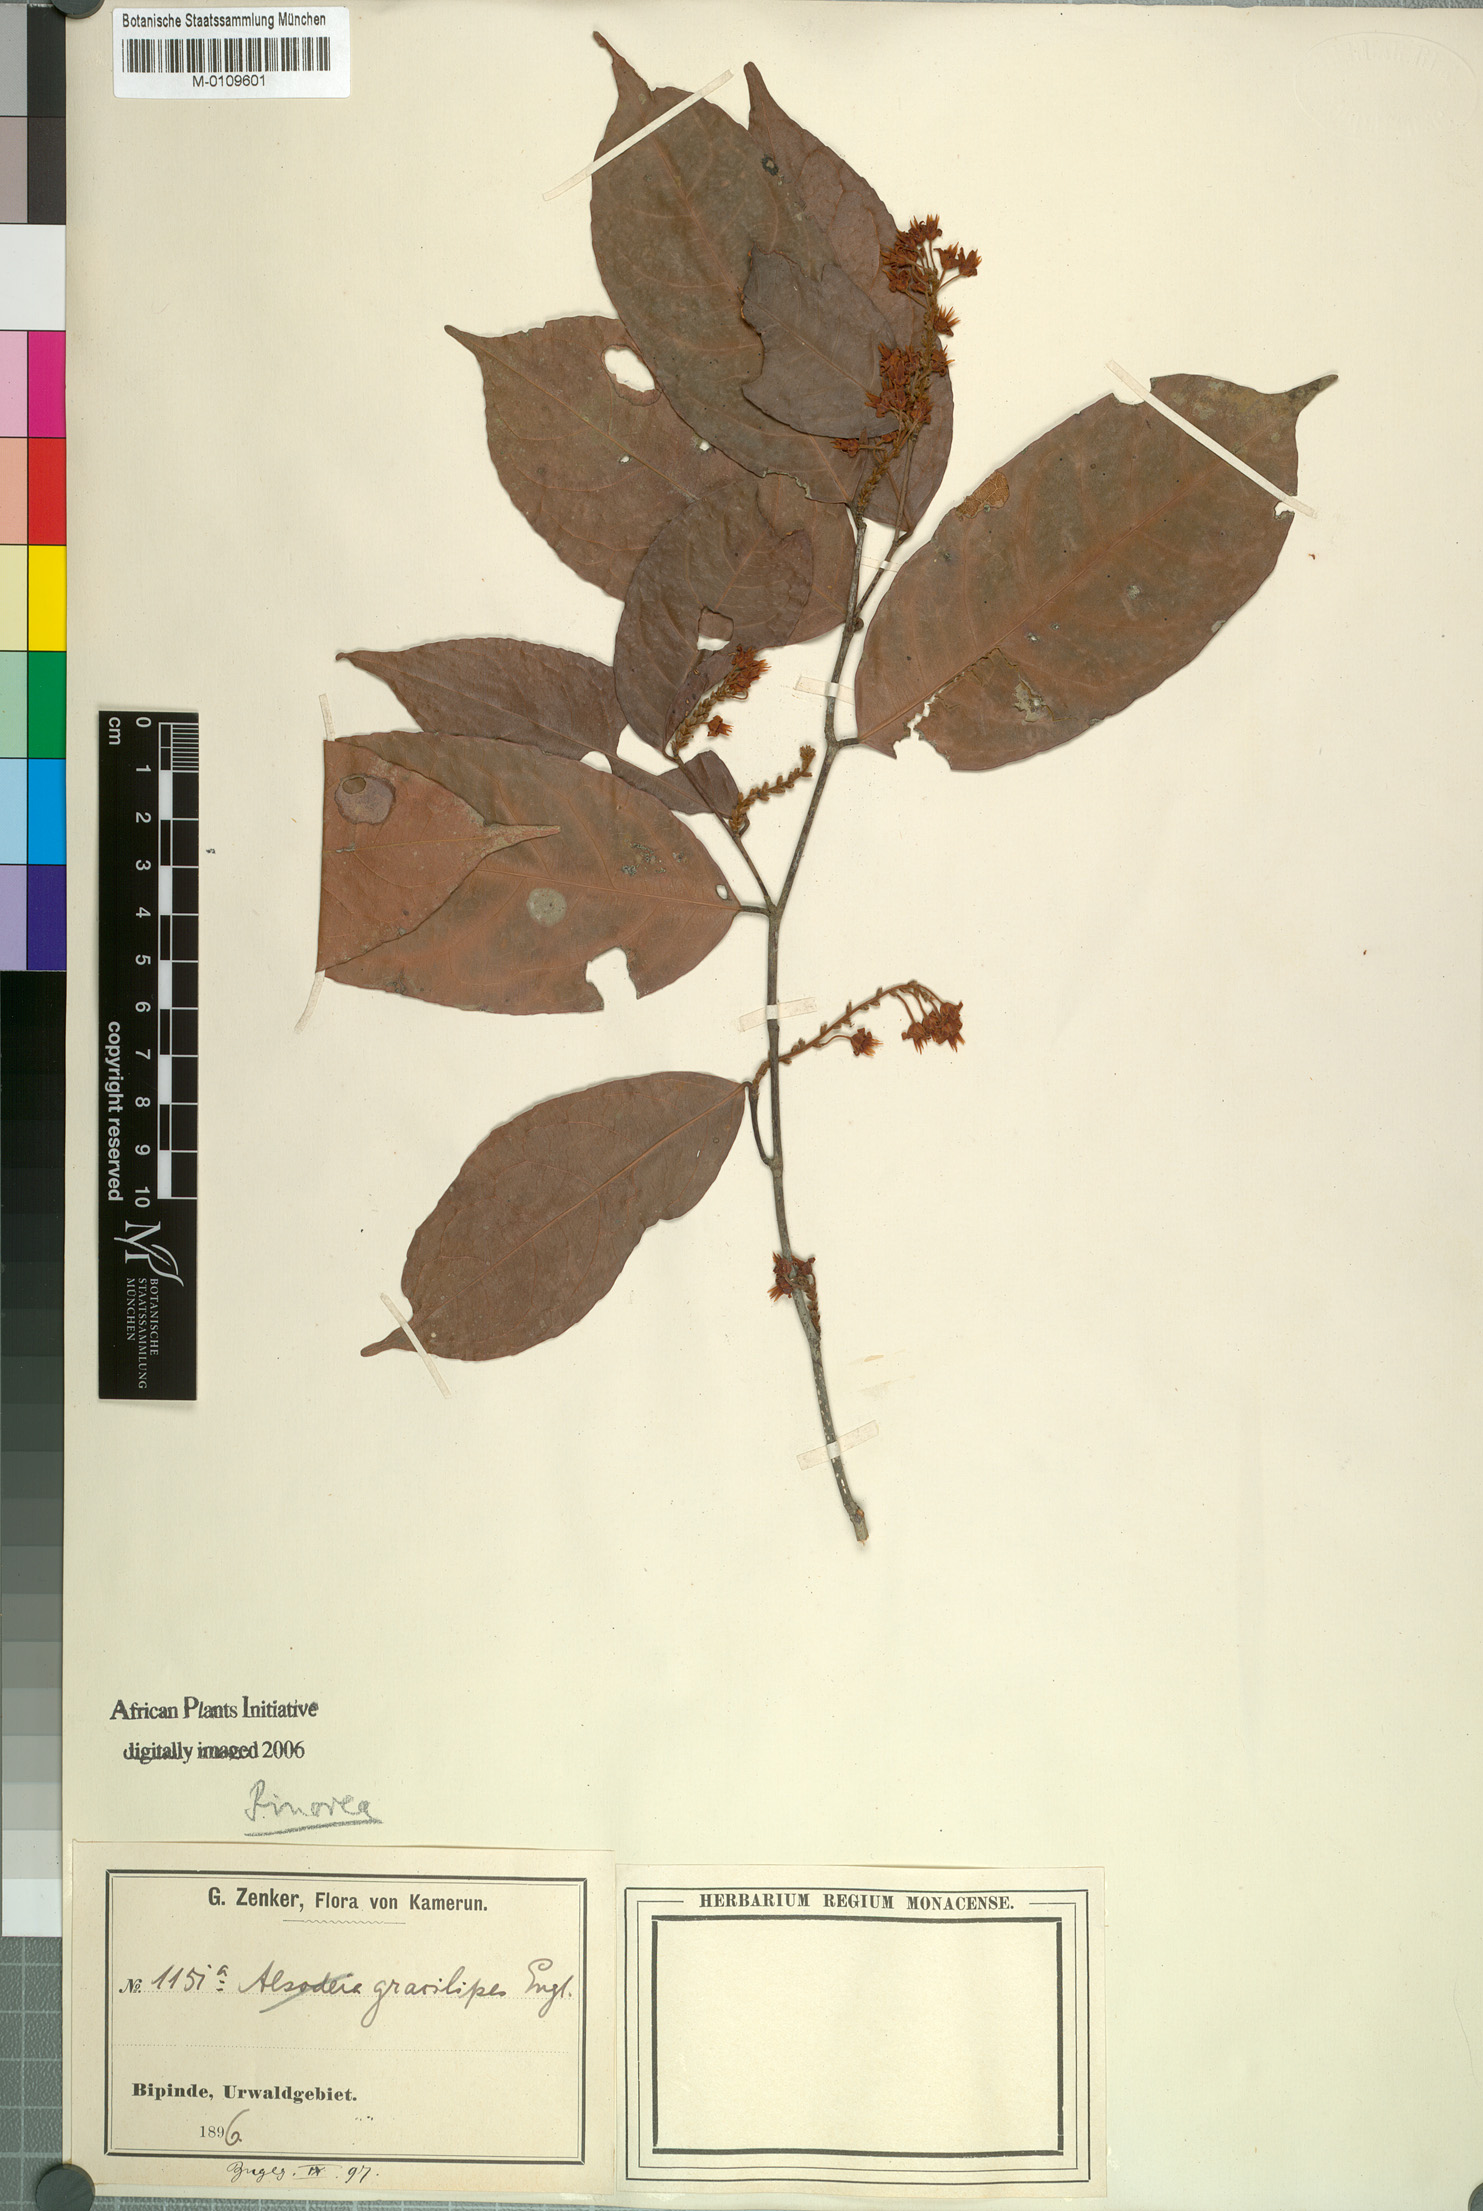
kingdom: Plantae
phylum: Tracheophyta
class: Magnoliopsida
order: Malpighiales
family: Violaceae
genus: Rinorea
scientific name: Rinorea angustifolia
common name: White violet-bush
